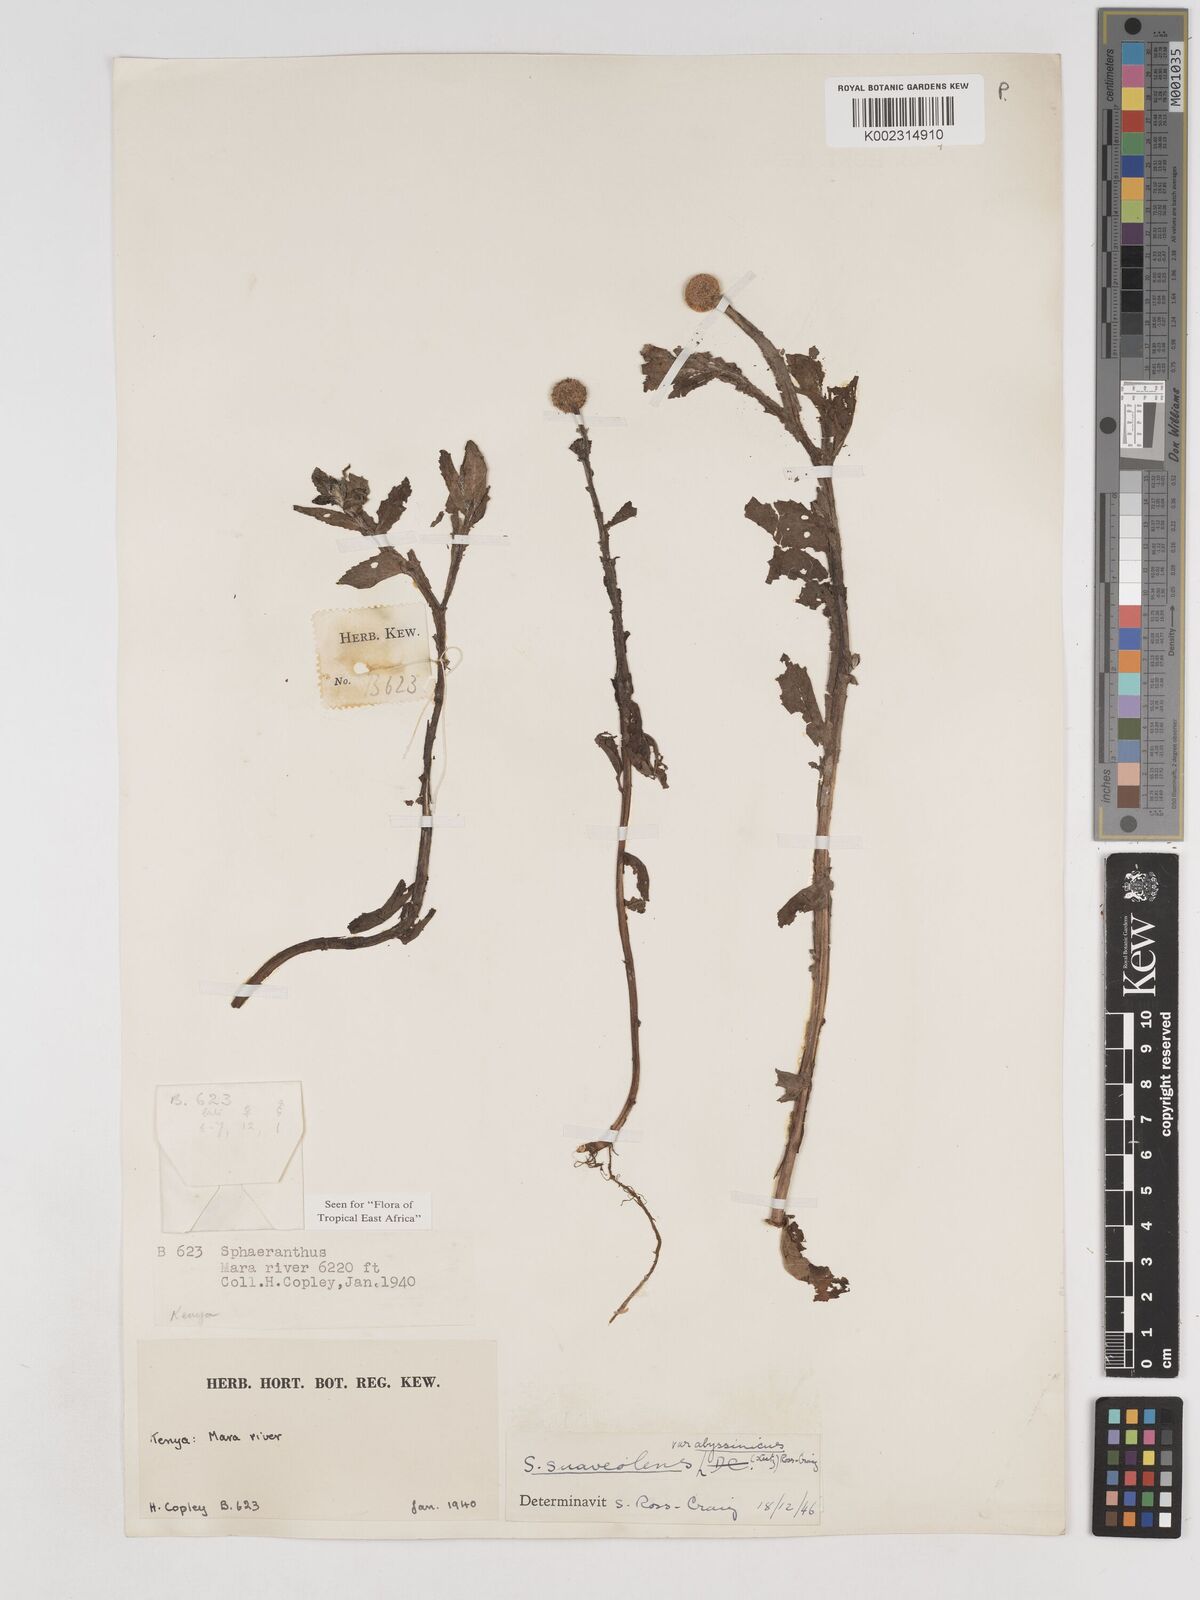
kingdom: Plantae
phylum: Tracheophyta
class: Magnoliopsida
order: Asterales
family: Asteraceae
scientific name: Asteraceae
